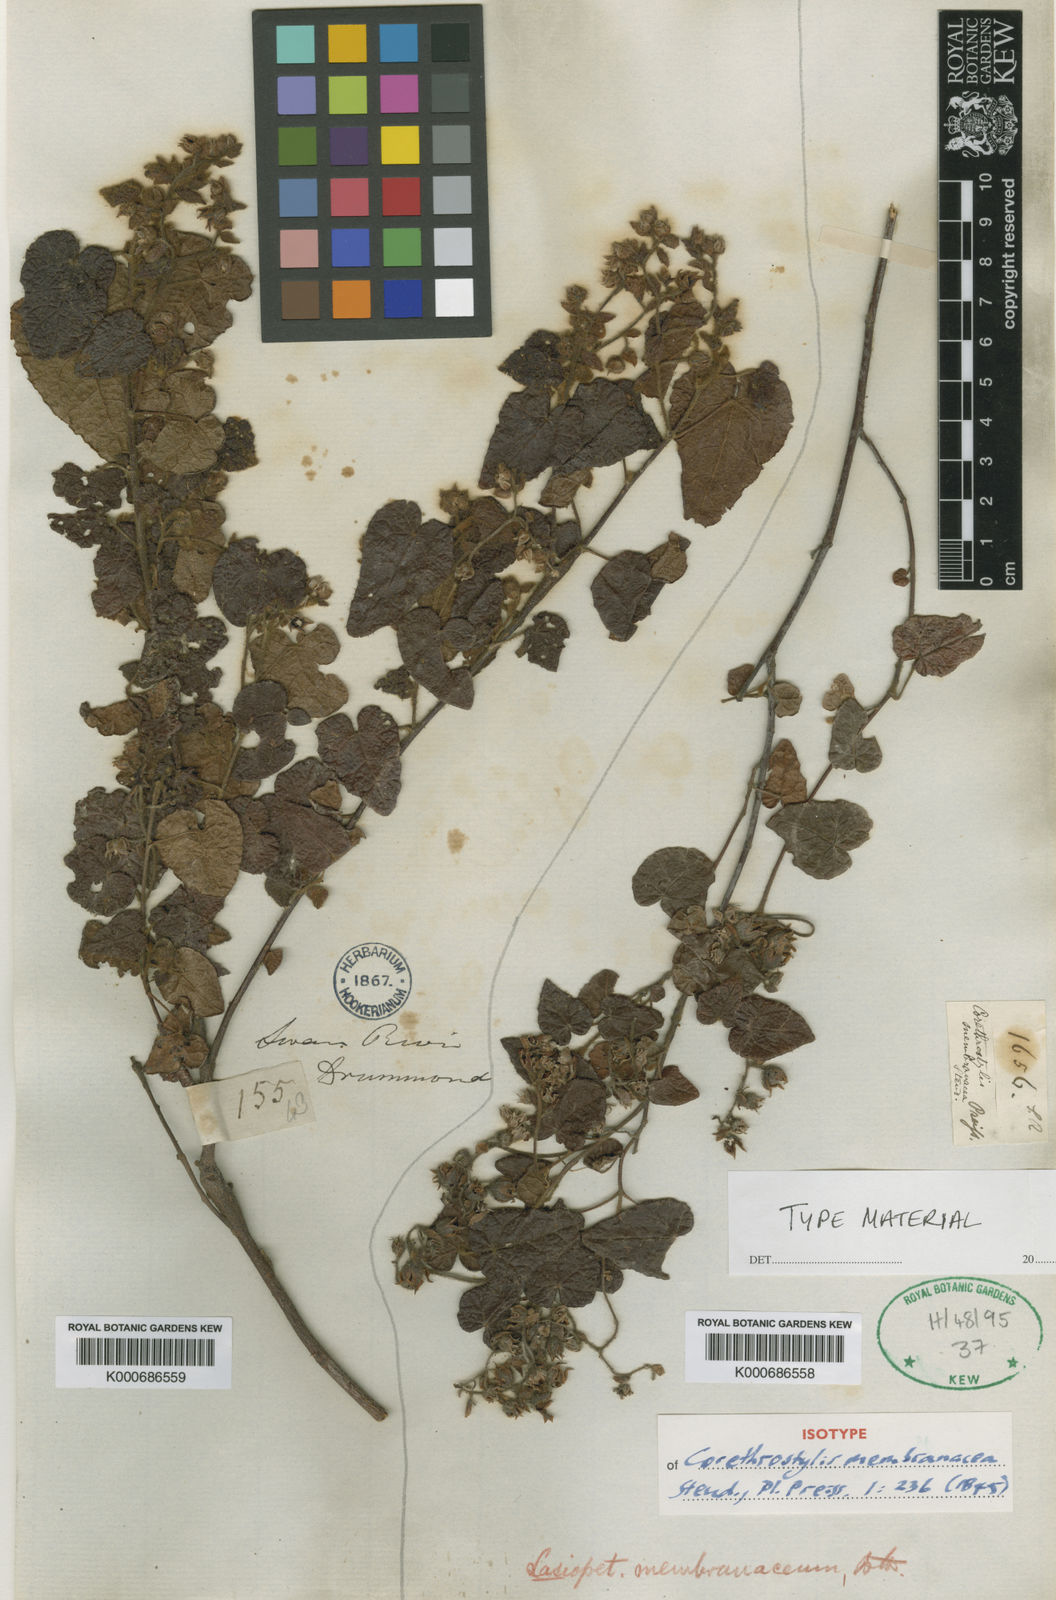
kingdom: Plantae
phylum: Tracheophyta
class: Magnoliopsida
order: Malvales
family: Malvaceae
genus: Lasiopetalum
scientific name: Lasiopetalum membranaceum
